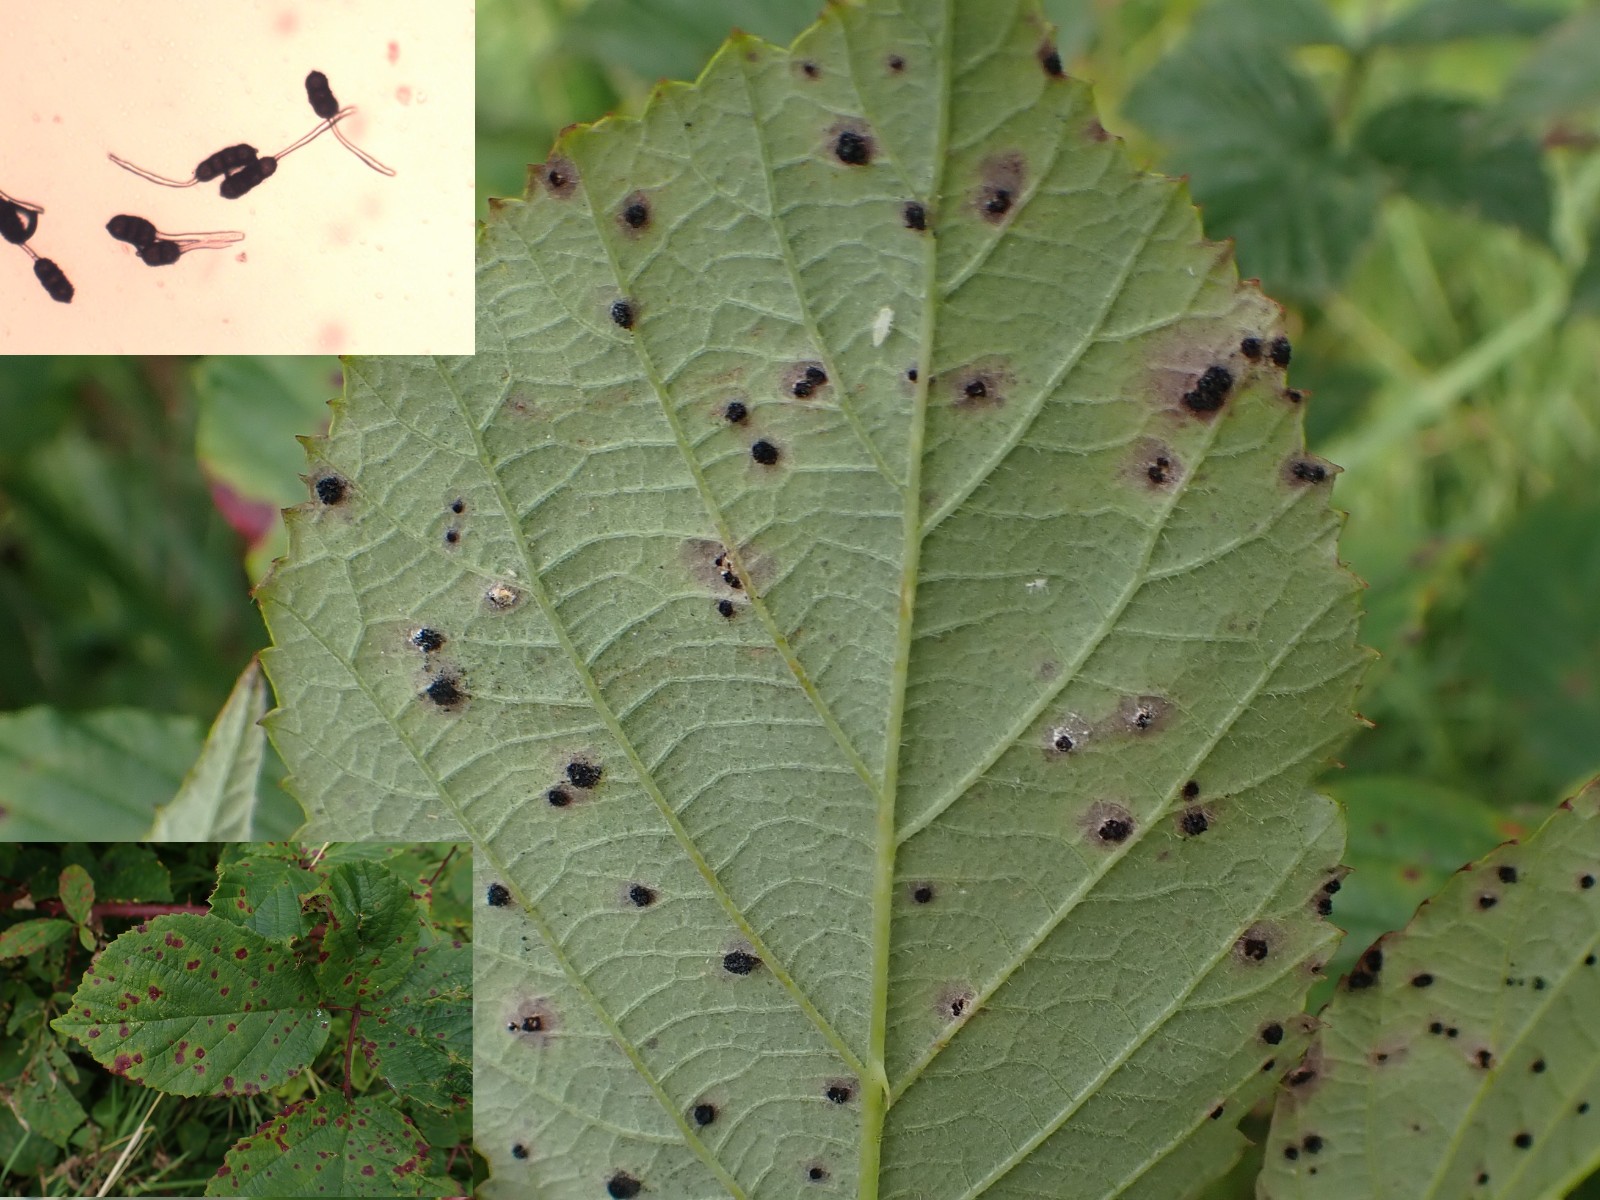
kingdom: Fungi
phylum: Basidiomycota
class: Pucciniomycetes
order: Pucciniales
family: Phragmidiaceae
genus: Phragmidium
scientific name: Phragmidium violaceum
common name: violet flercellerust
